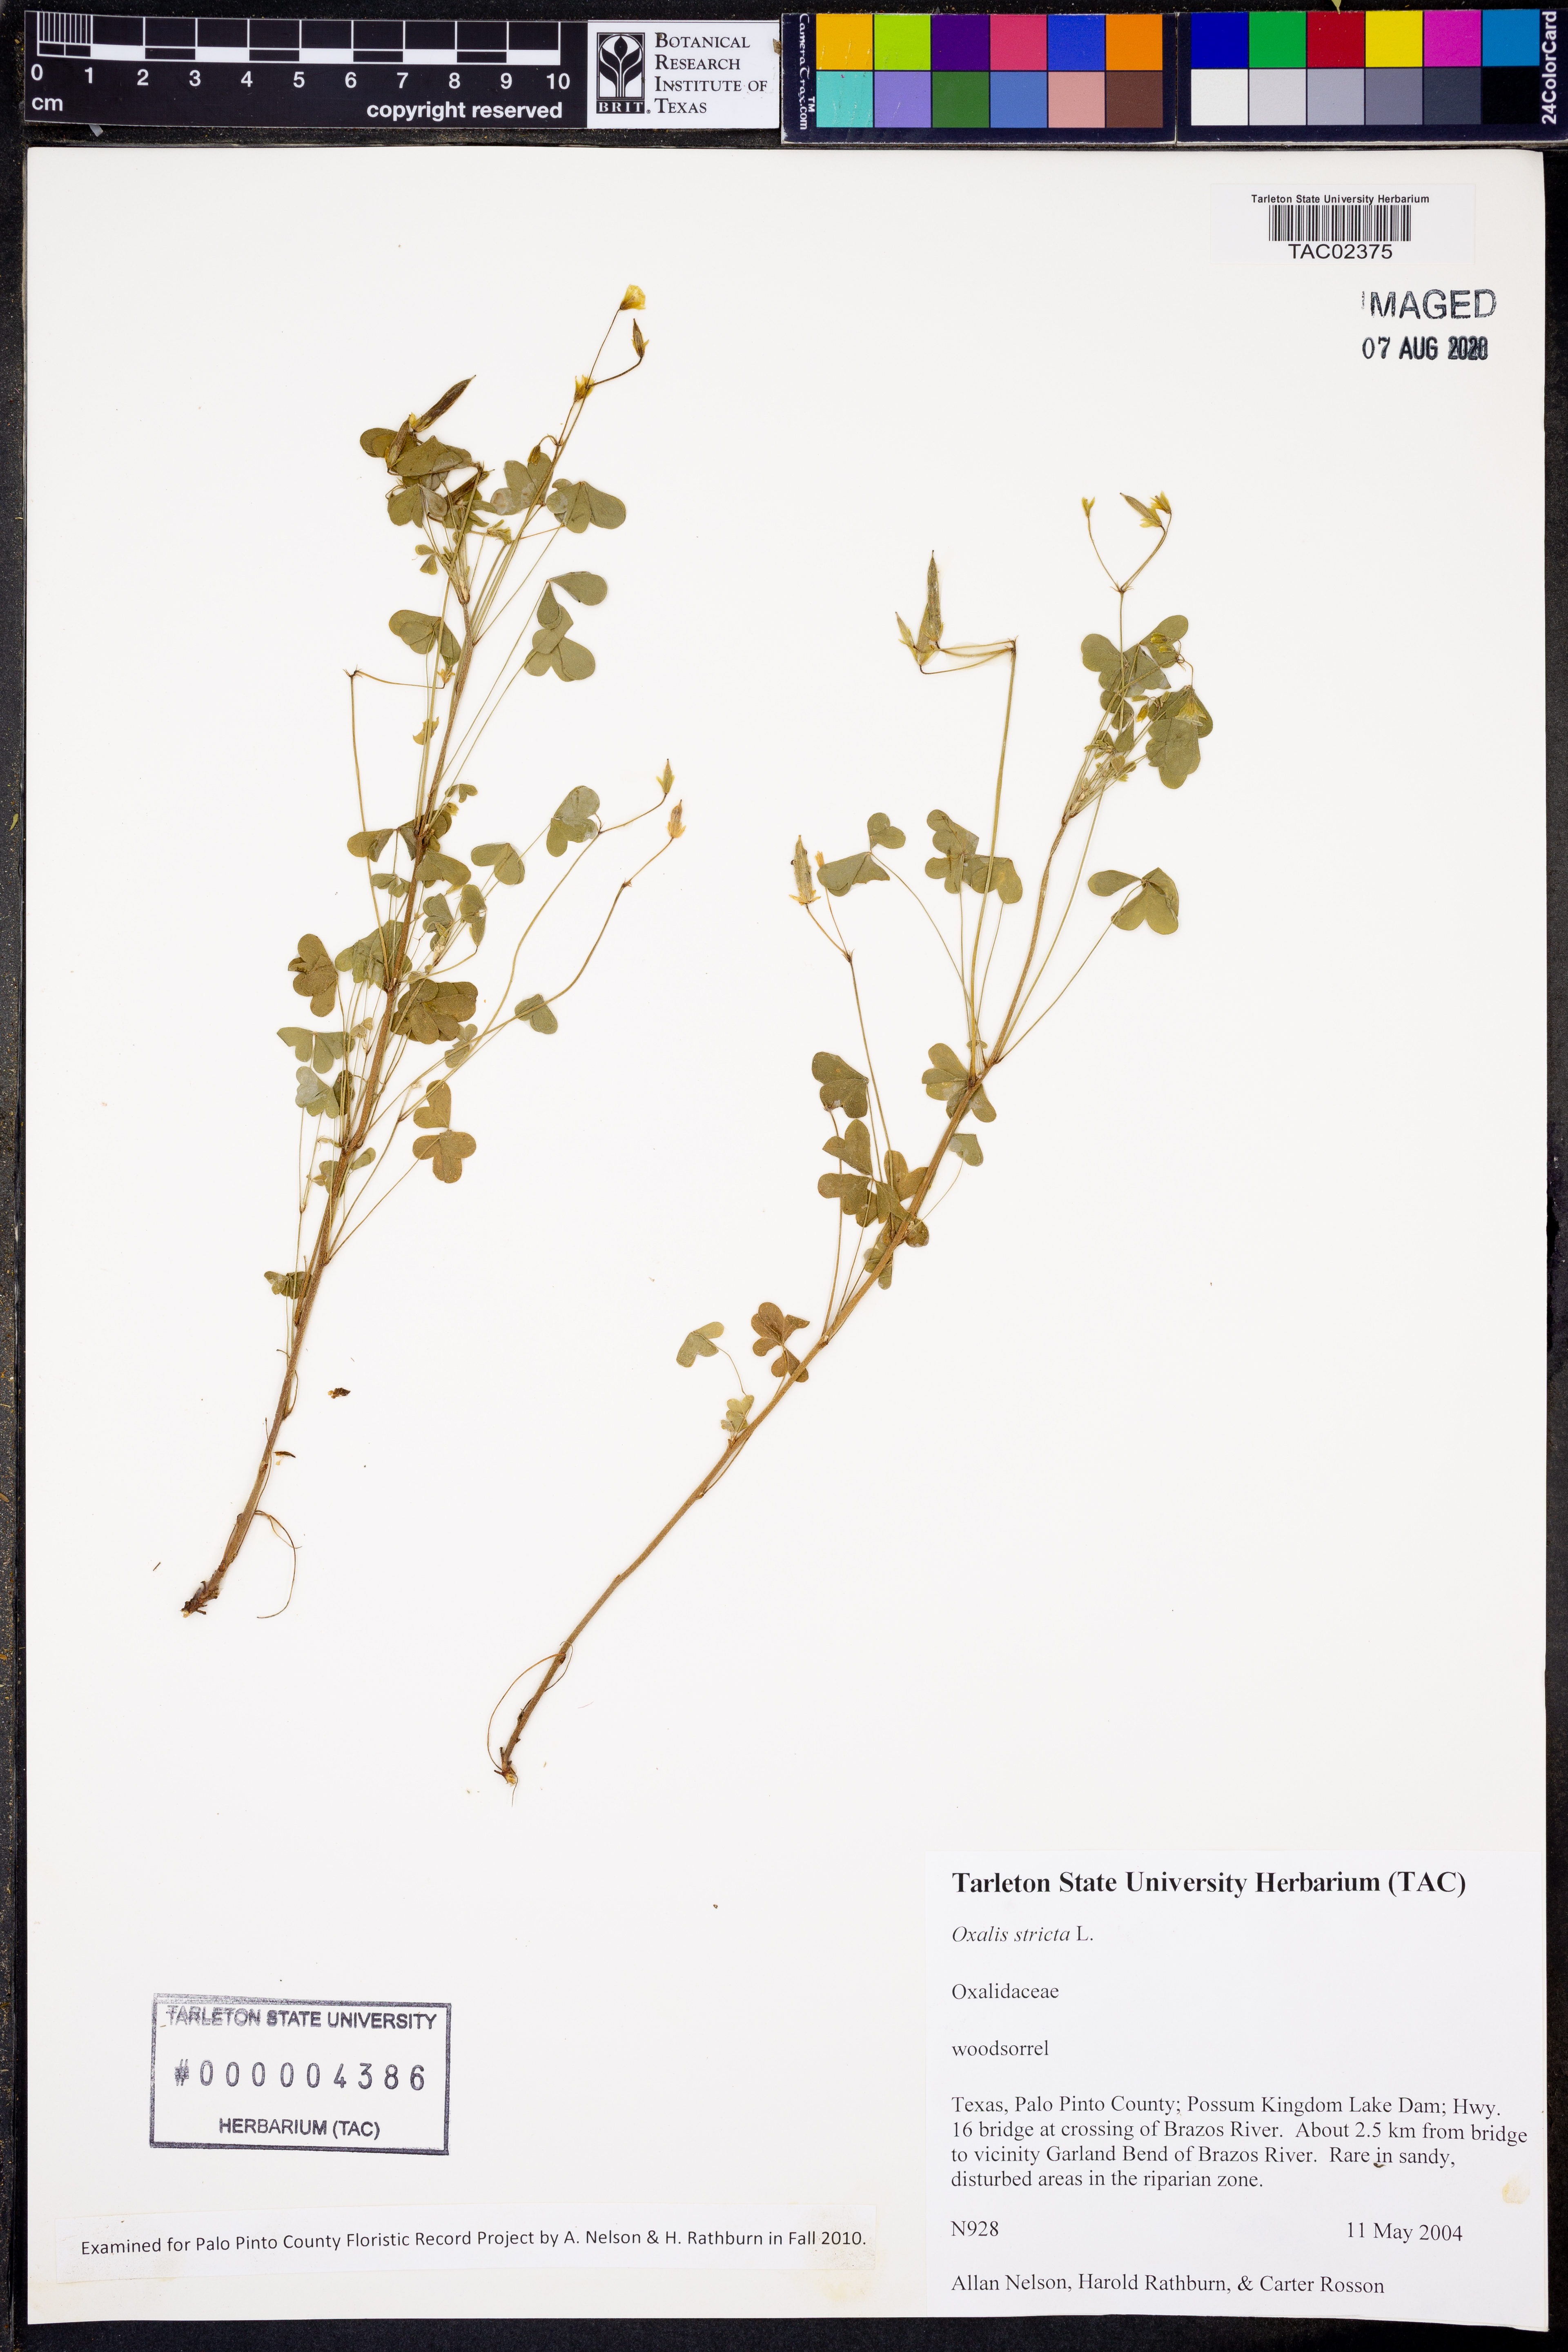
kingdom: Plantae
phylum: Tracheophyta
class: Magnoliopsida
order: Oxalidales
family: Oxalidaceae
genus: Oxalis
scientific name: Oxalis stricta
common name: Upright yellow-sorrel
